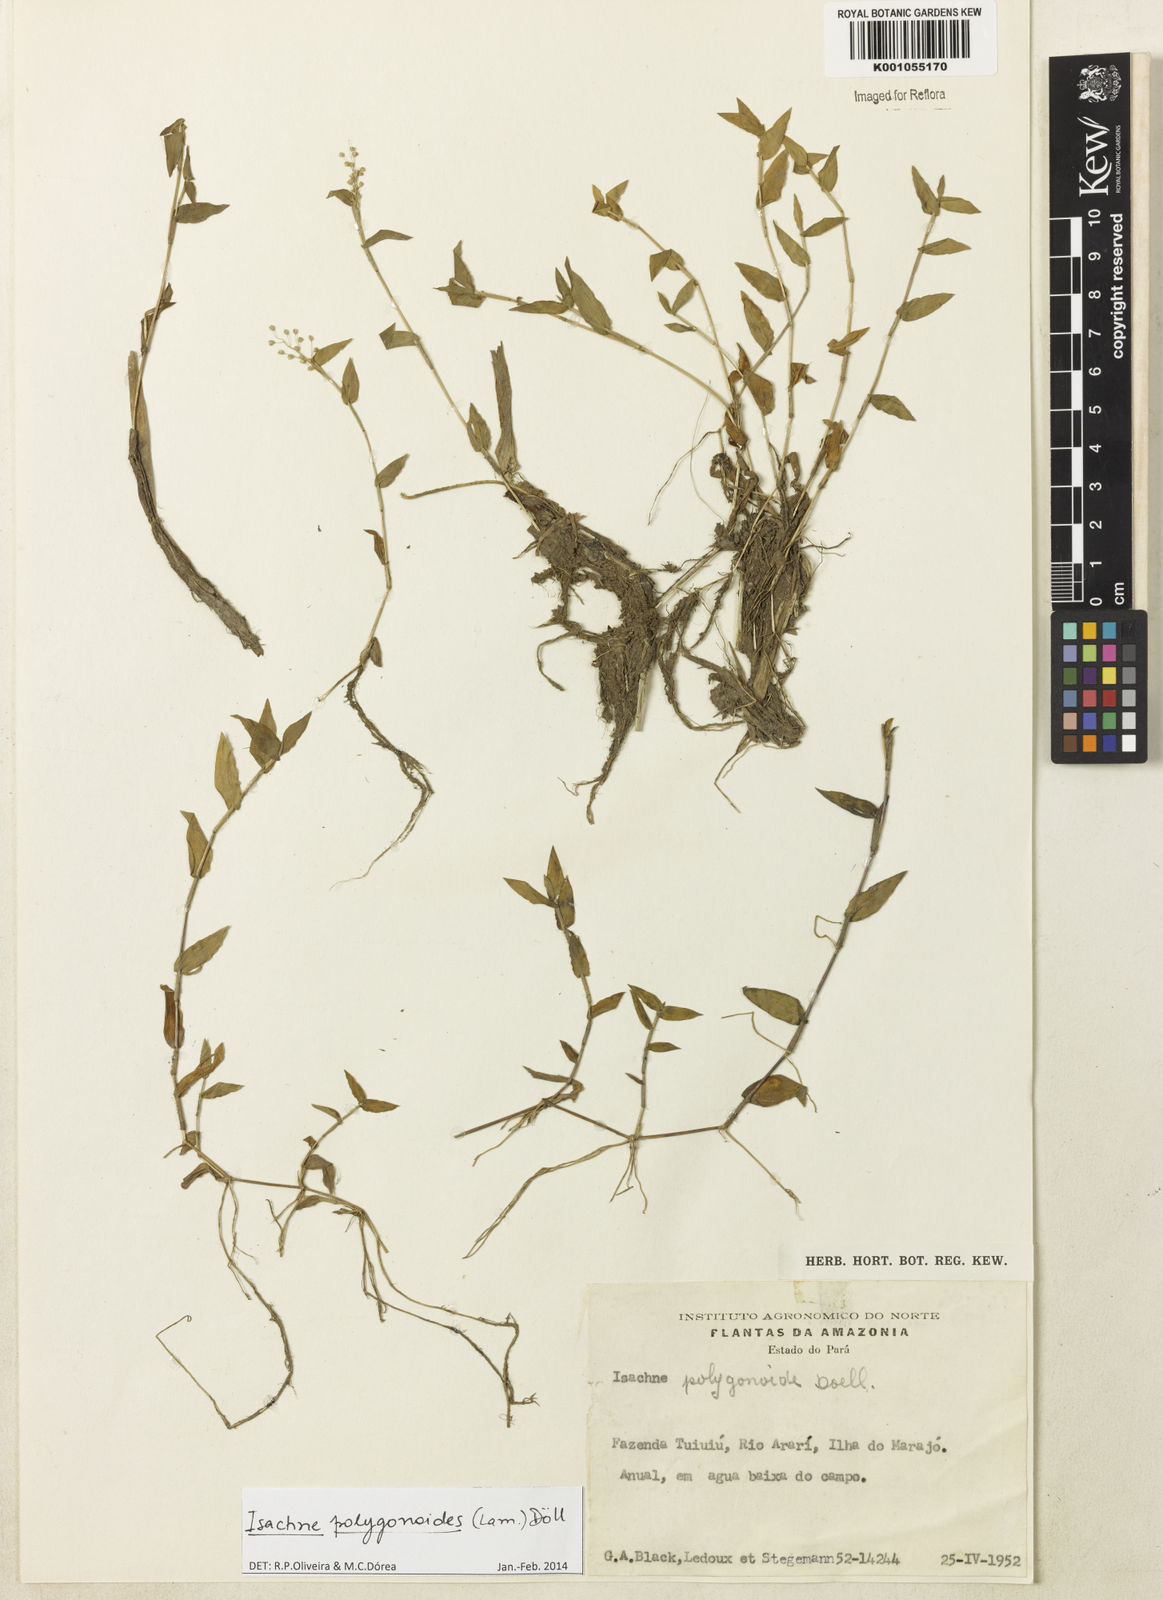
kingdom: Plantae
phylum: Tracheophyta
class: Liliopsida
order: Poales
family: Poaceae
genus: Isachne
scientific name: Isachne
